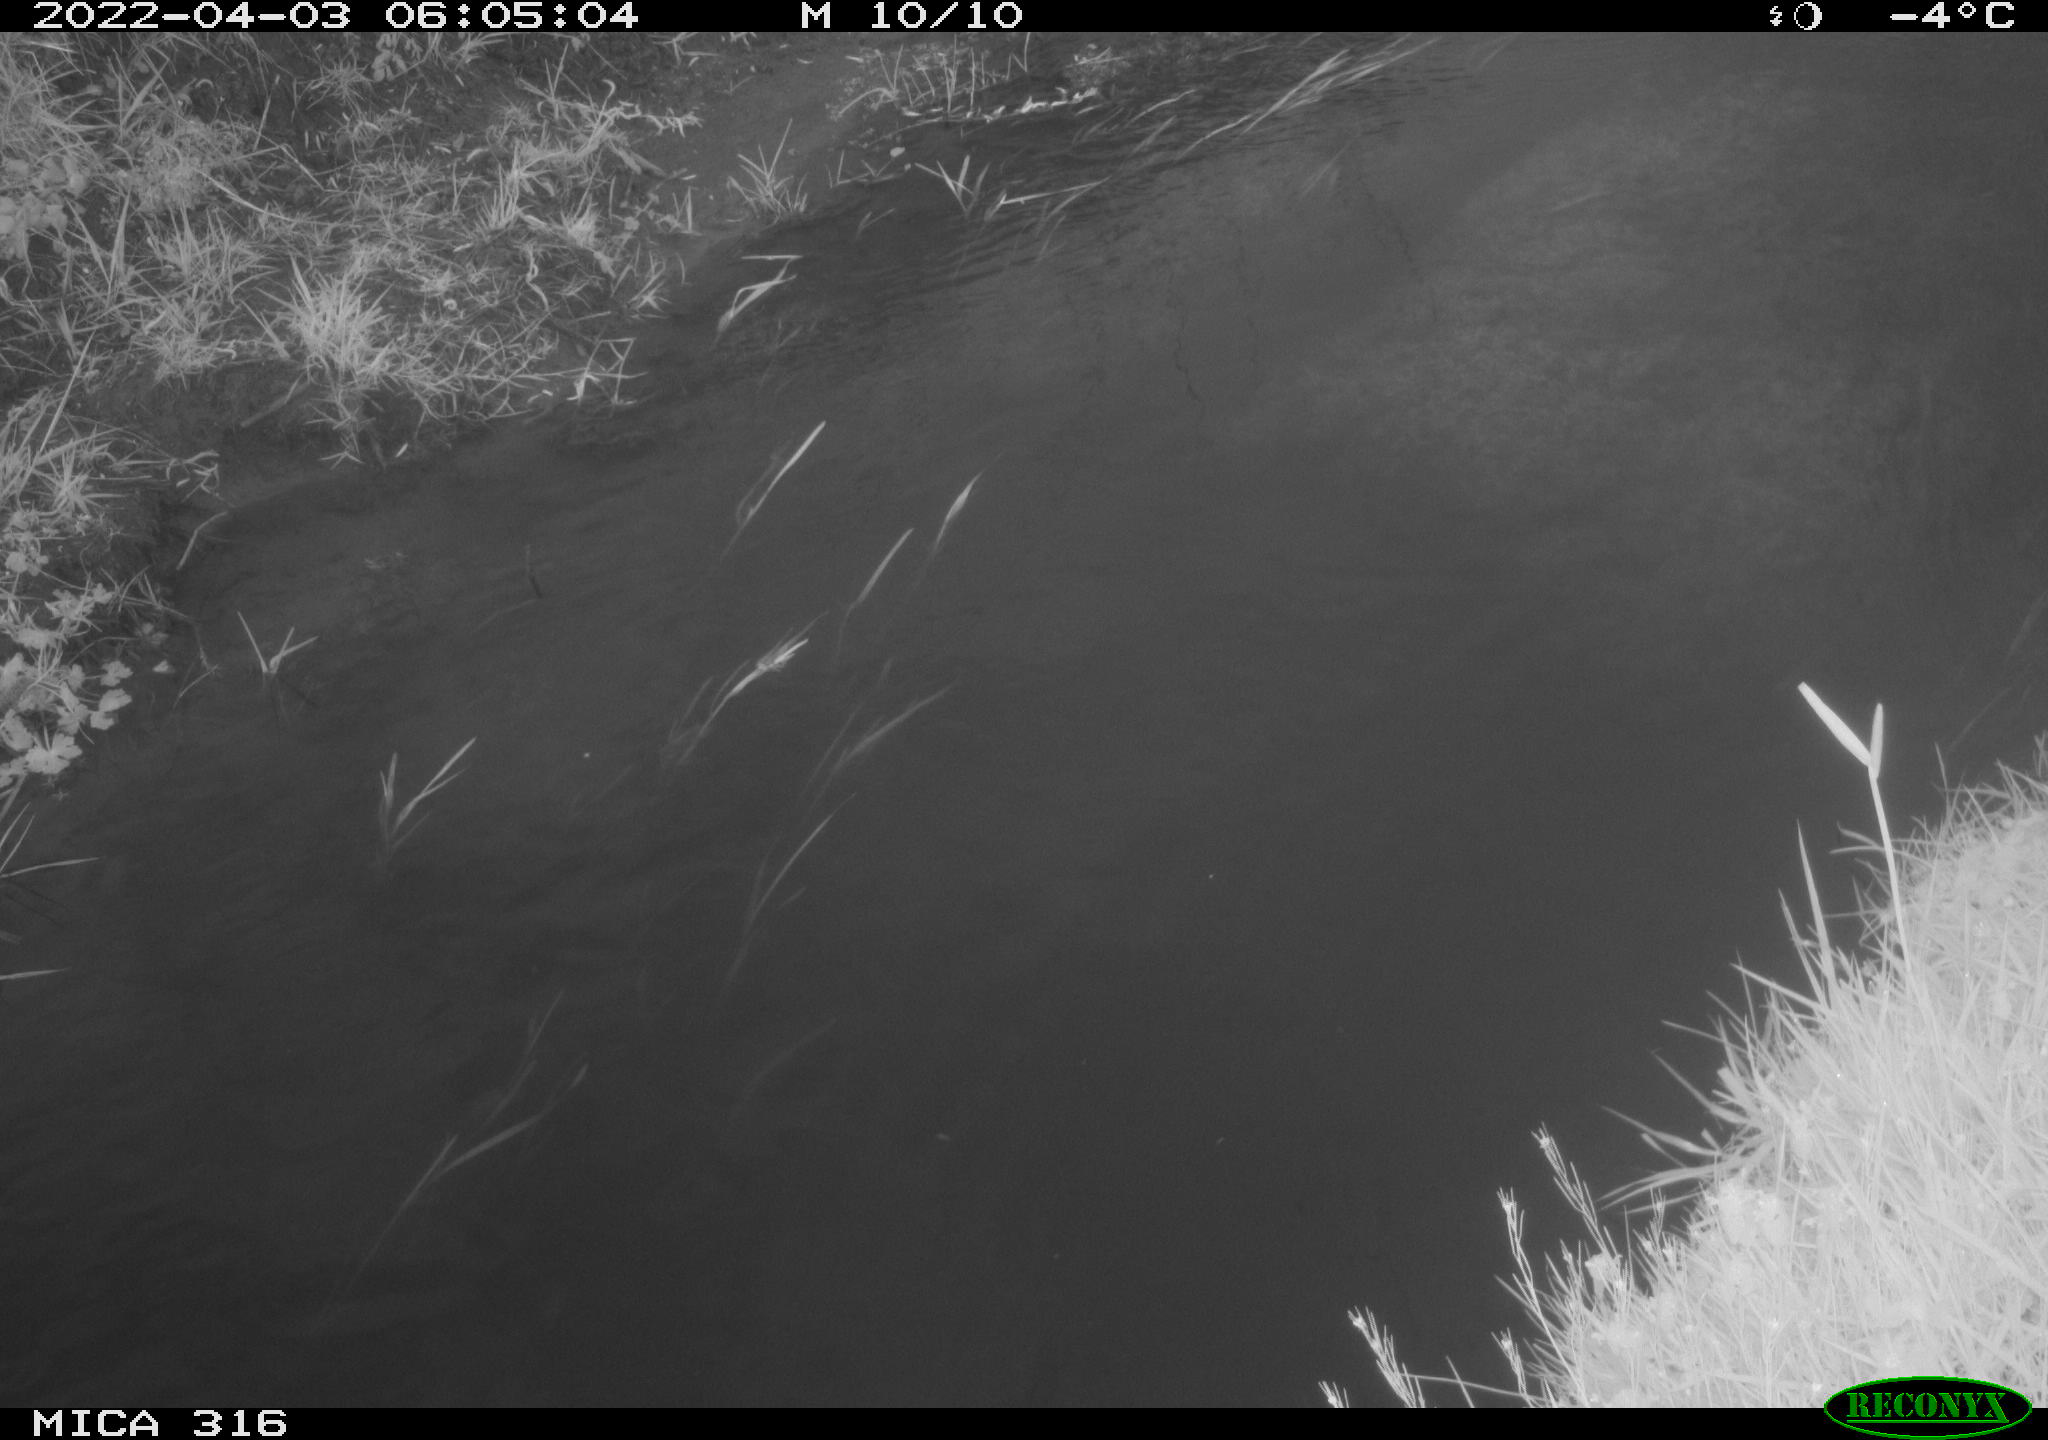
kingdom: Animalia
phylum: Chordata
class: Aves
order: Anseriformes
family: Anatidae
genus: Anas
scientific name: Anas platyrhynchos
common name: Mallard
